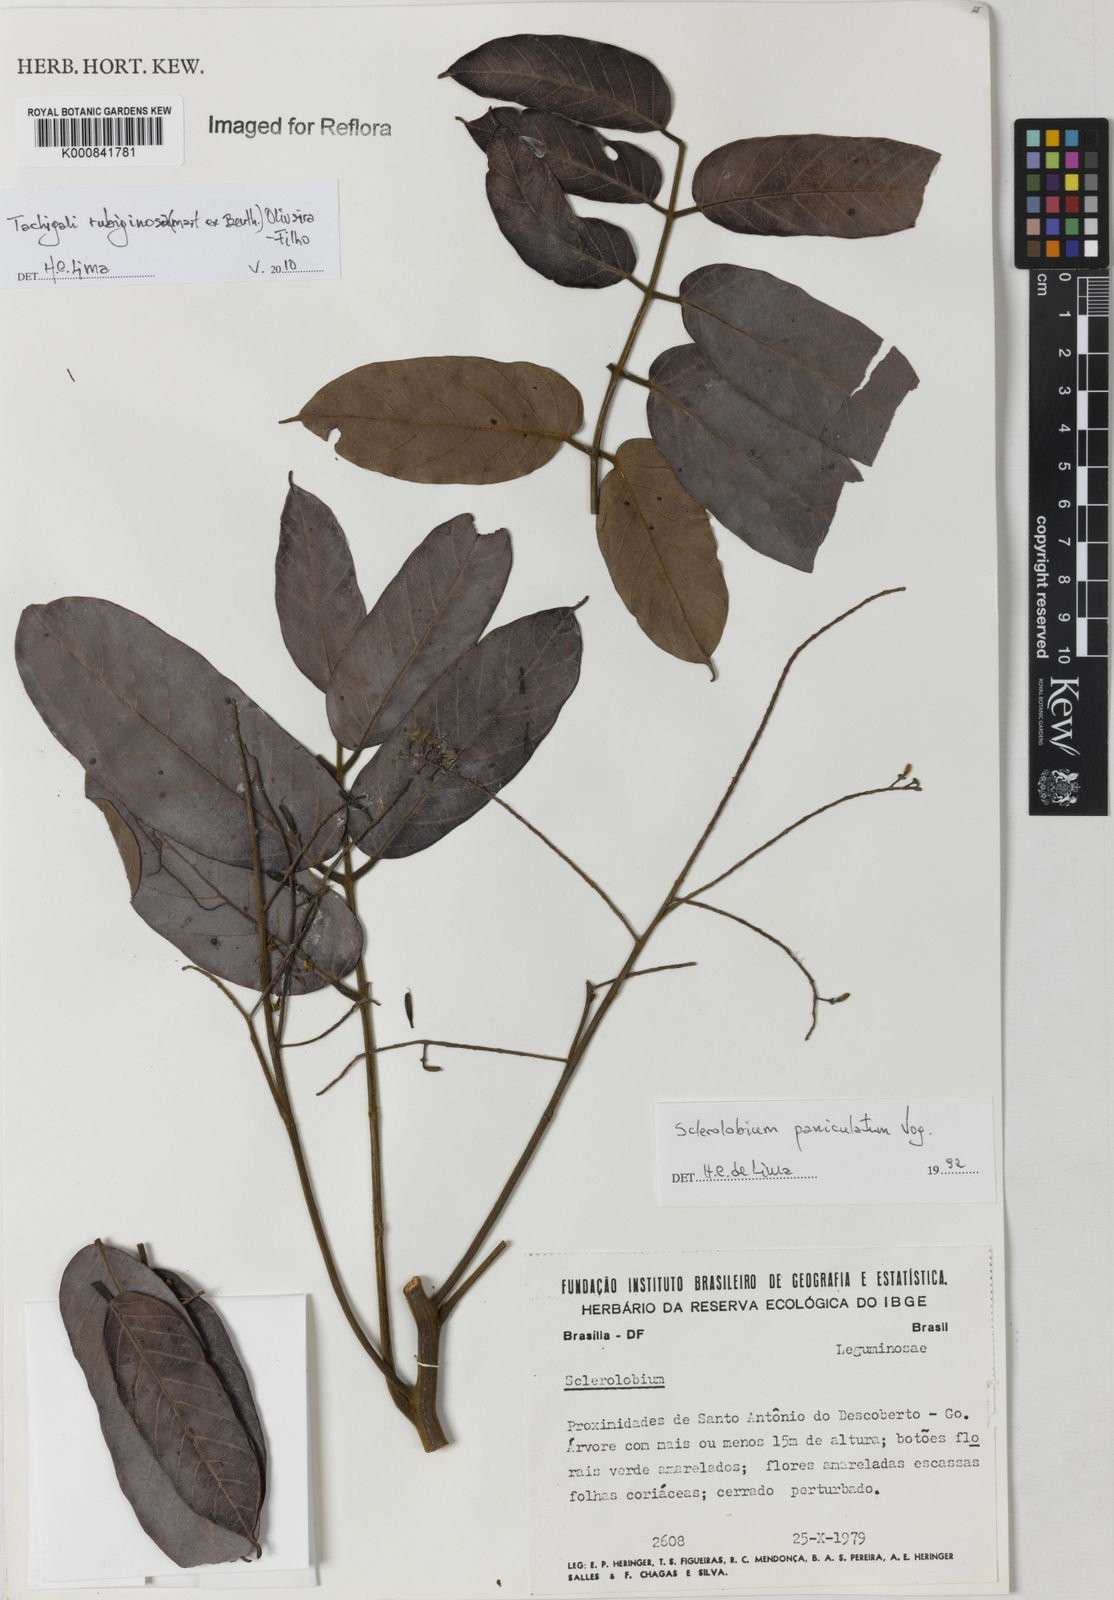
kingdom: Plantae
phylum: Tracheophyta
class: Magnoliopsida
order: Fabales
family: Fabaceae
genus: Tachigali
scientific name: Tachigali rubiginosa
